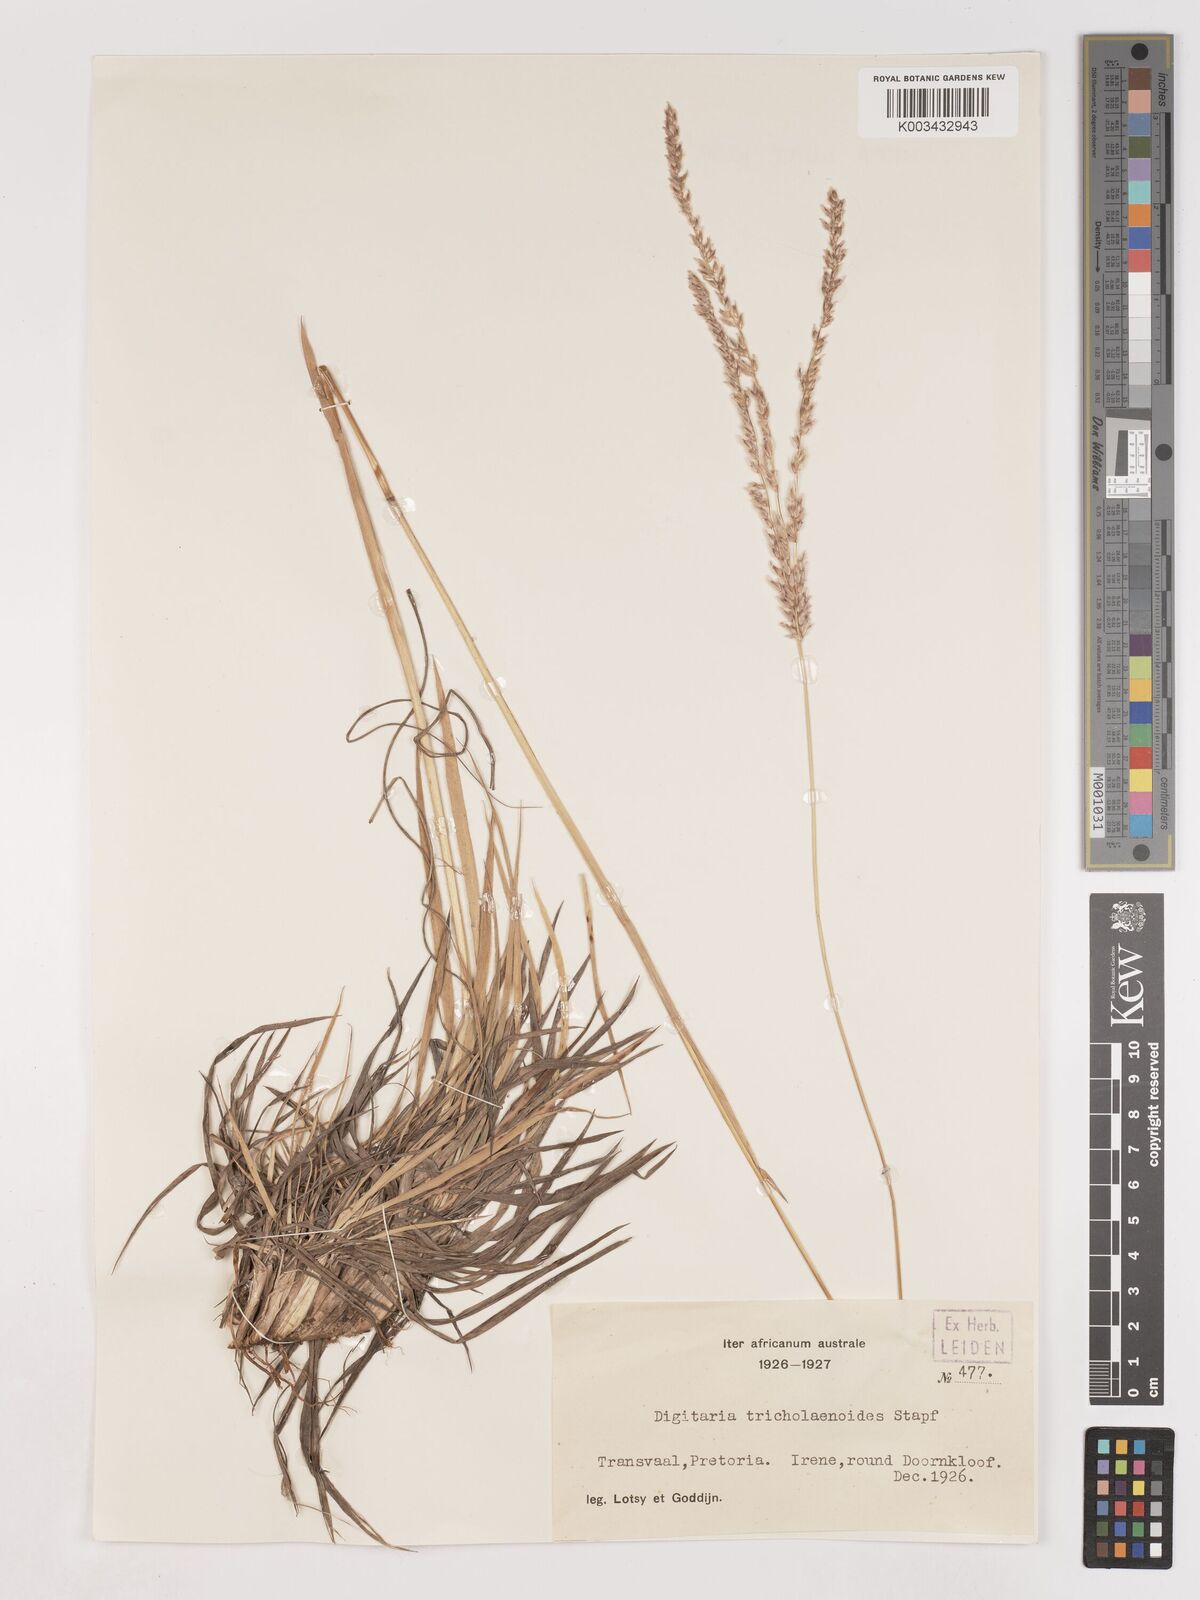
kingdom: Plantae
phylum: Tracheophyta
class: Liliopsida
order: Poales
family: Poaceae
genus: Digitaria
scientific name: Digitaria tricholaenoides
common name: Purple finger grass
